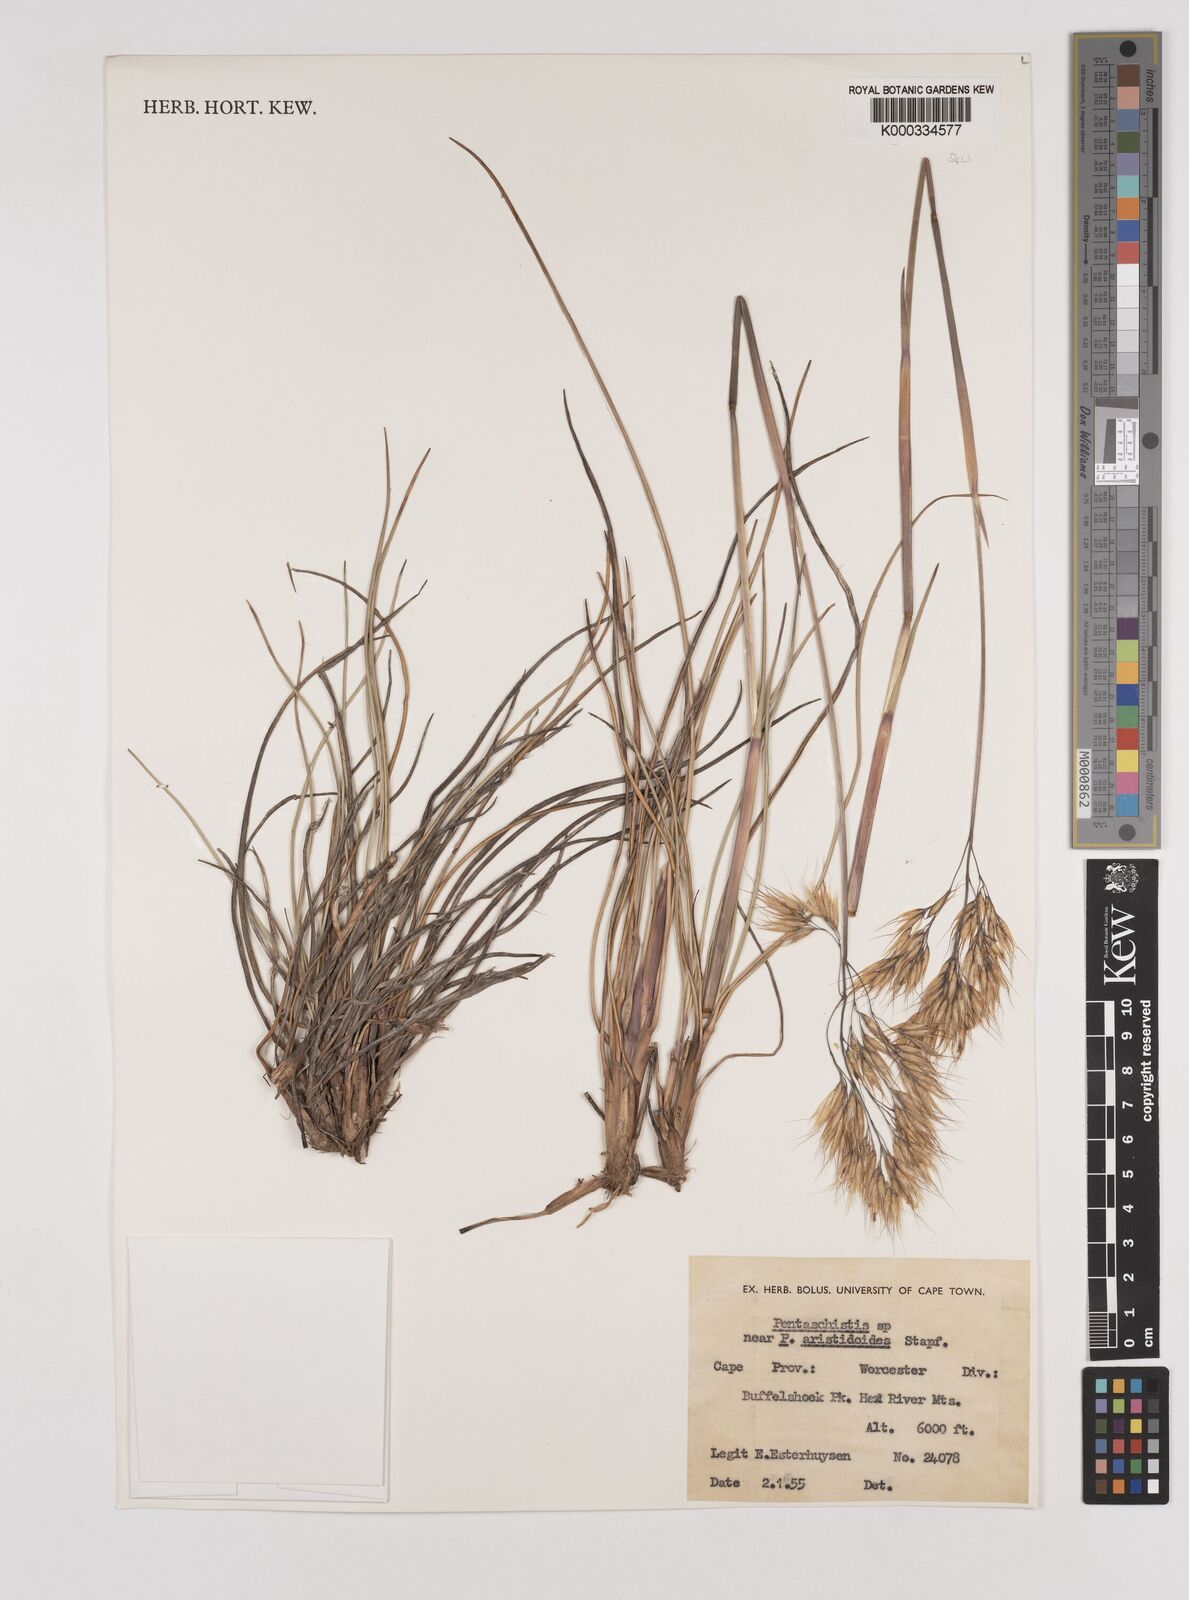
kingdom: Plantae
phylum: Tracheophyta
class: Liliopsida
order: Poales
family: Poaceae
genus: Pentameris
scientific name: Pentameris aristidoides
